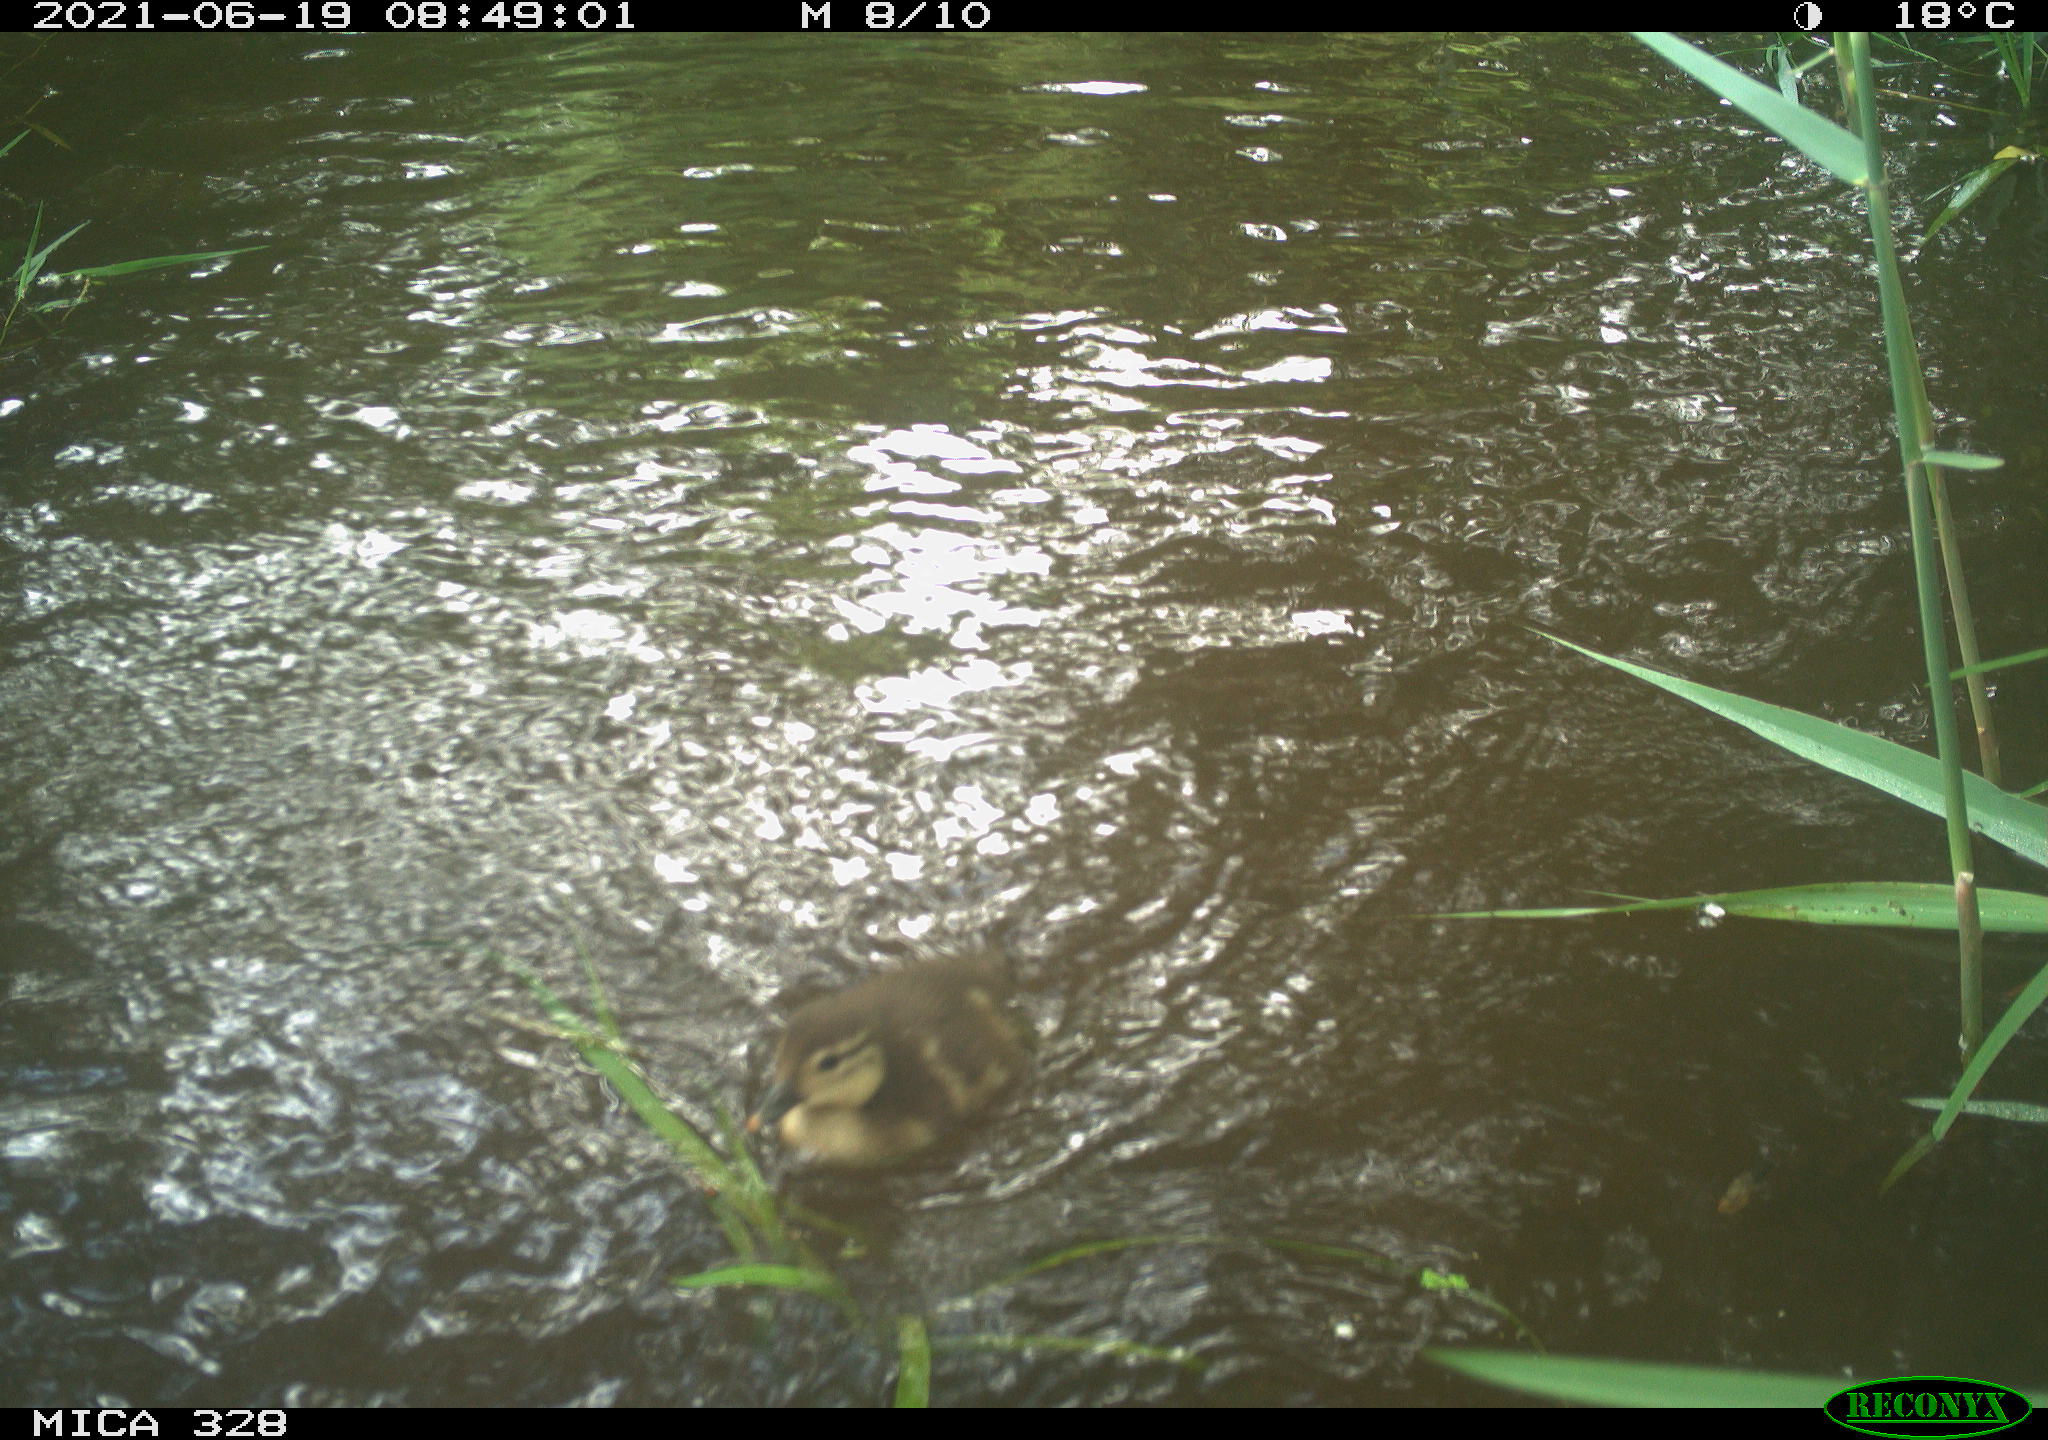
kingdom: Animalia
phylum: Chordata
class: Aves
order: Anseriformes
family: Anatidae
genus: Aix
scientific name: Aix galericulata
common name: Mandarin duck
